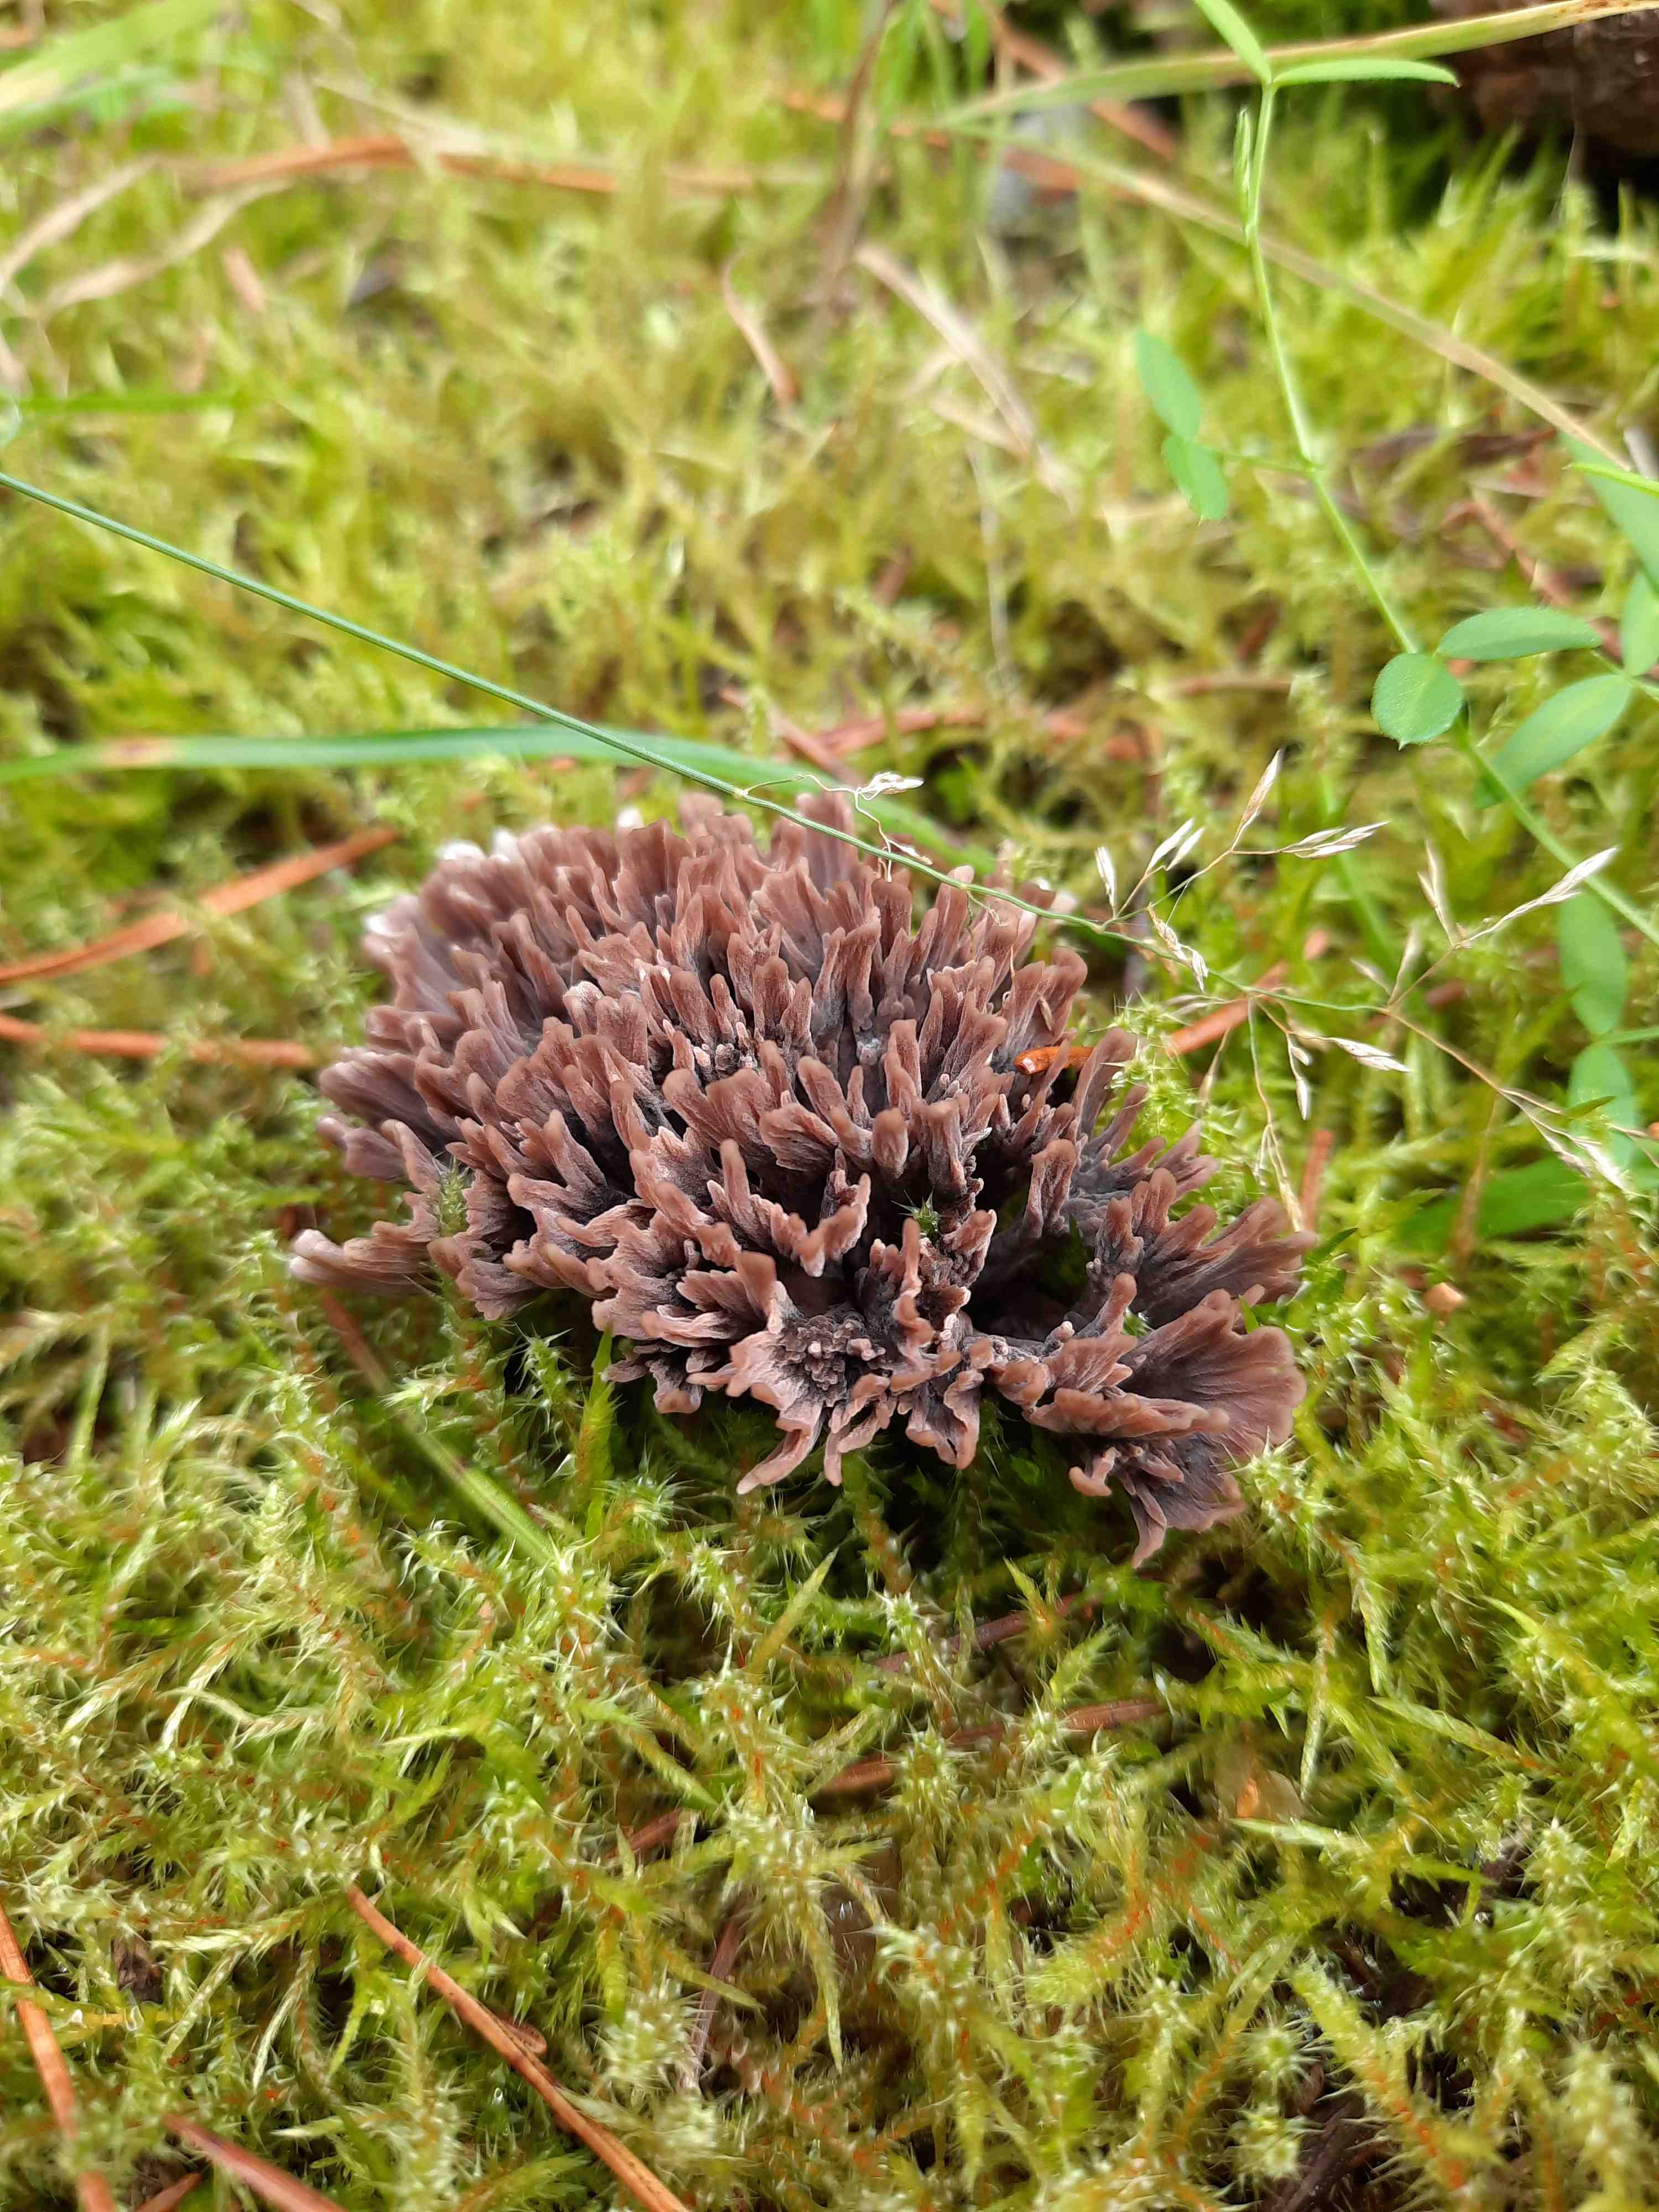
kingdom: Fungi
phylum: Basidiomycota
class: Agaricomycetes
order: Thelephorales
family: Thelephoraceae
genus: Thelephora
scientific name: Thelephora palmata
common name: grenet frynsesvamp
